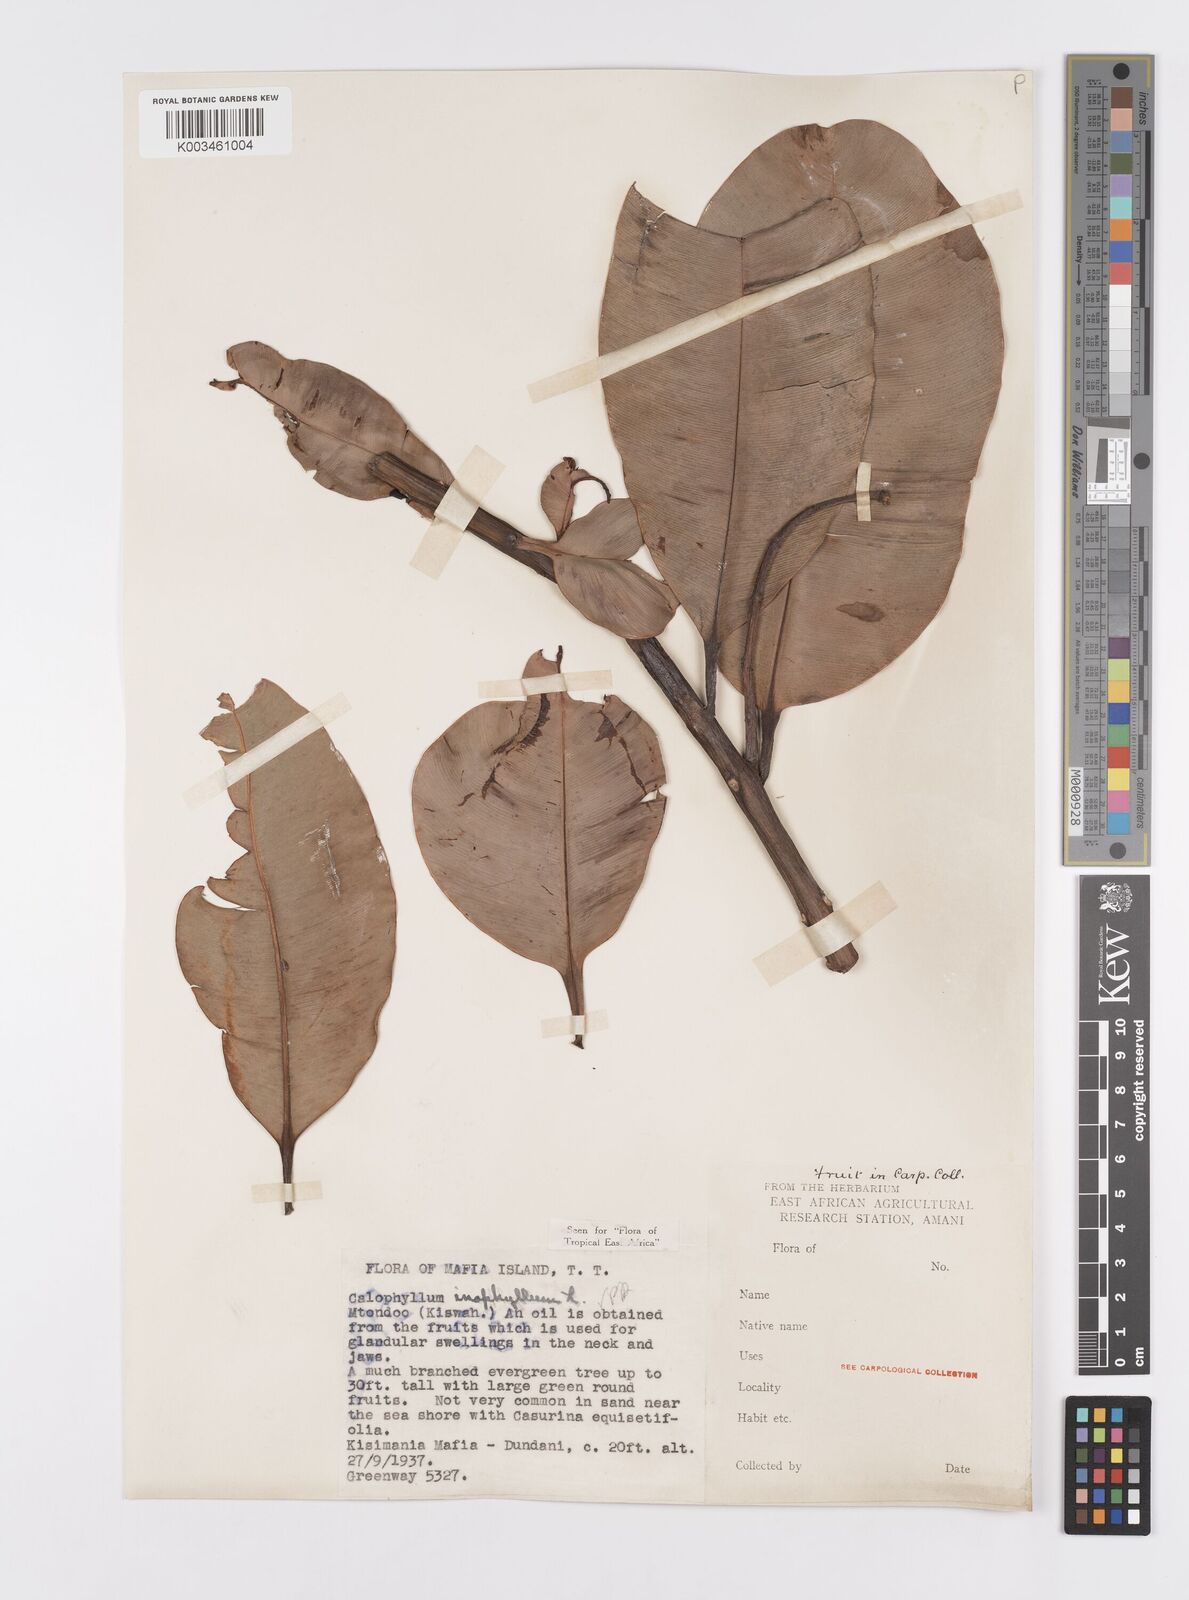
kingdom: Plantae
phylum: Tracheophyta
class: Magnoliopsida
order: Malpighiales
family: Calophyllaceae
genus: Calophyllum
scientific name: Calophyllum inophyllum
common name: Alexandrian laurel
